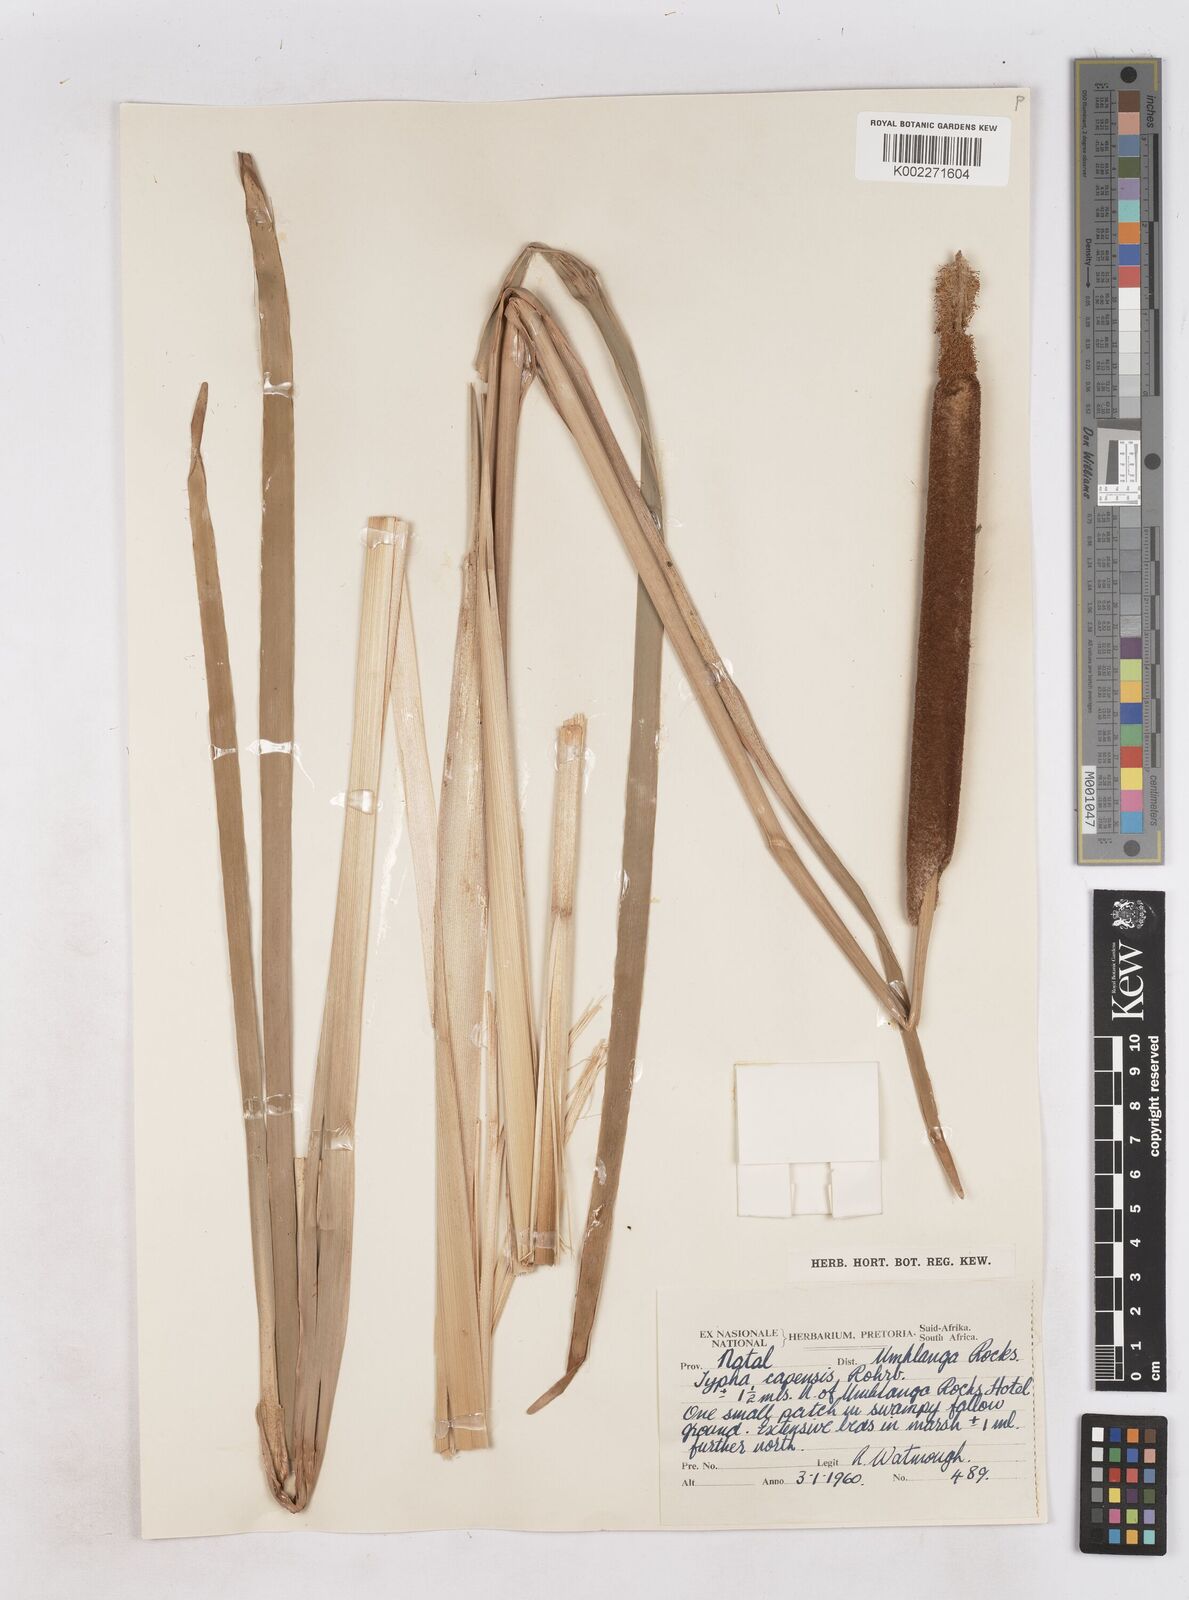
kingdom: Plantae
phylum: Tracheophyta
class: Liliopsida
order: Poales
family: Typhaceae
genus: Typha
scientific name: Typha capensis
